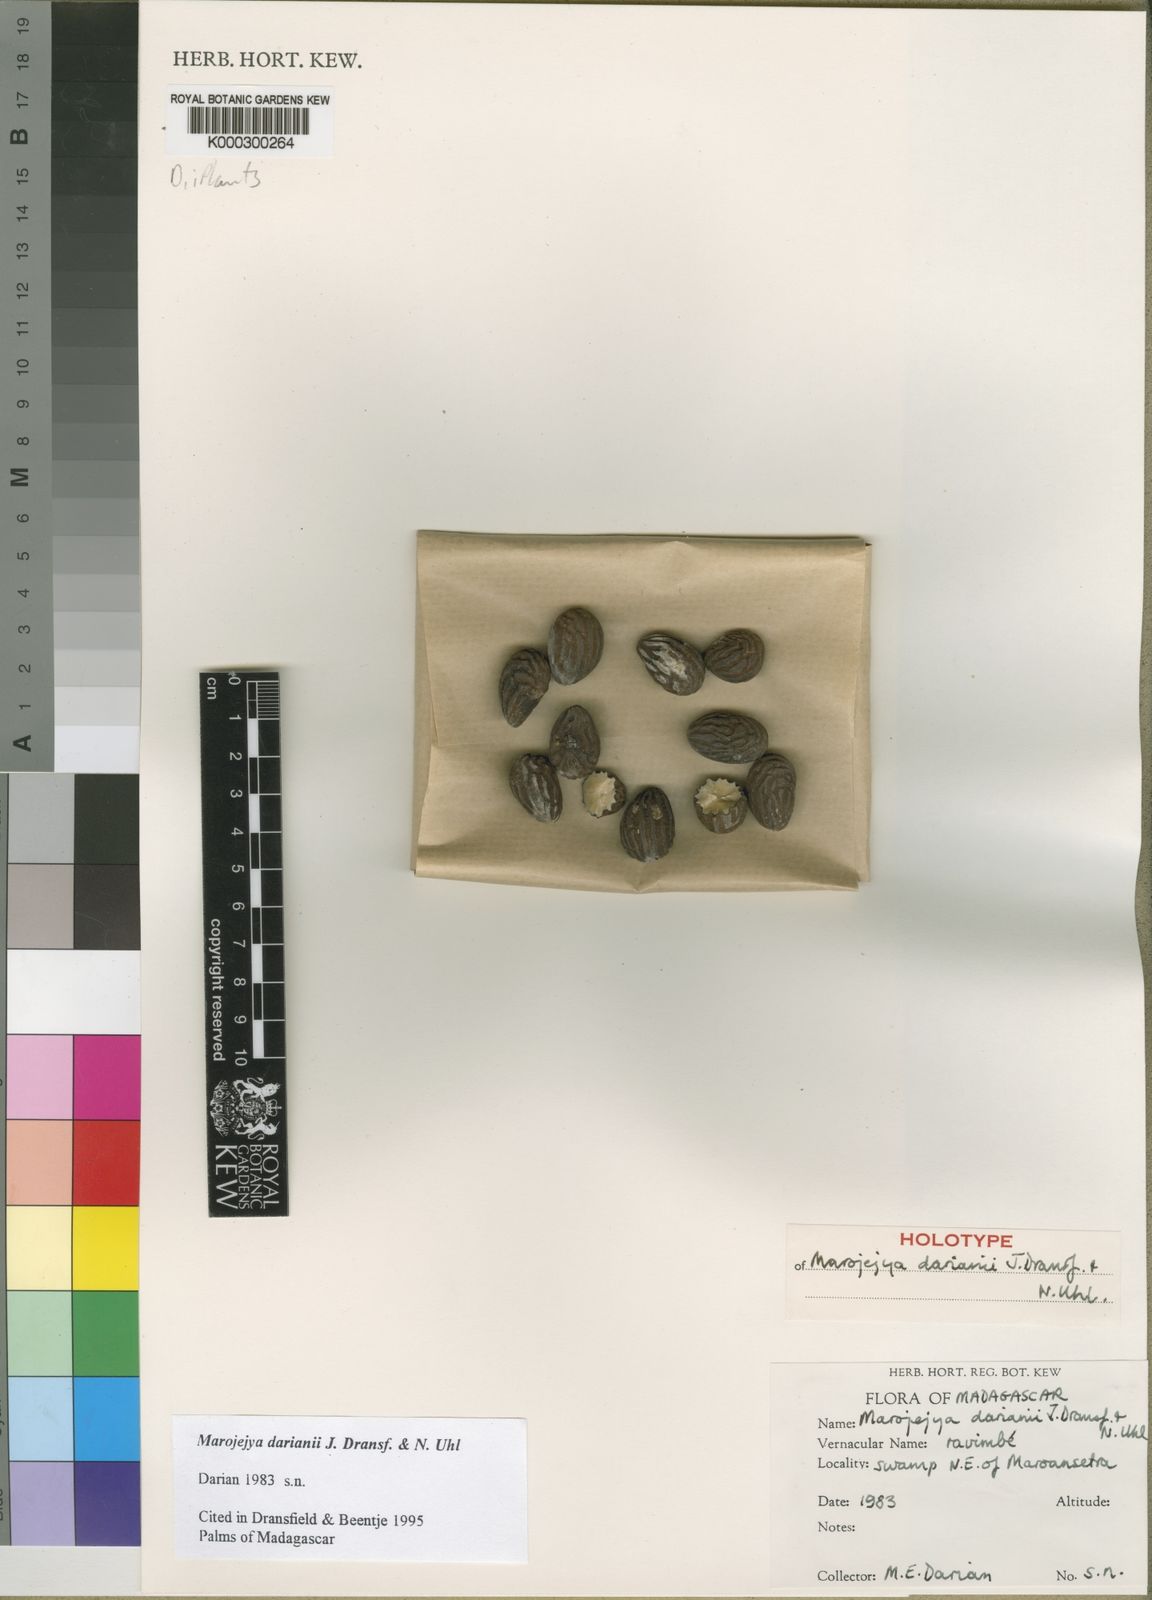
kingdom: Plantae
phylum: Tracheophyta
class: Liliopsida
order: Arecales
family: Arecaceae
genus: Marojejya
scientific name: Marojejya darianii
